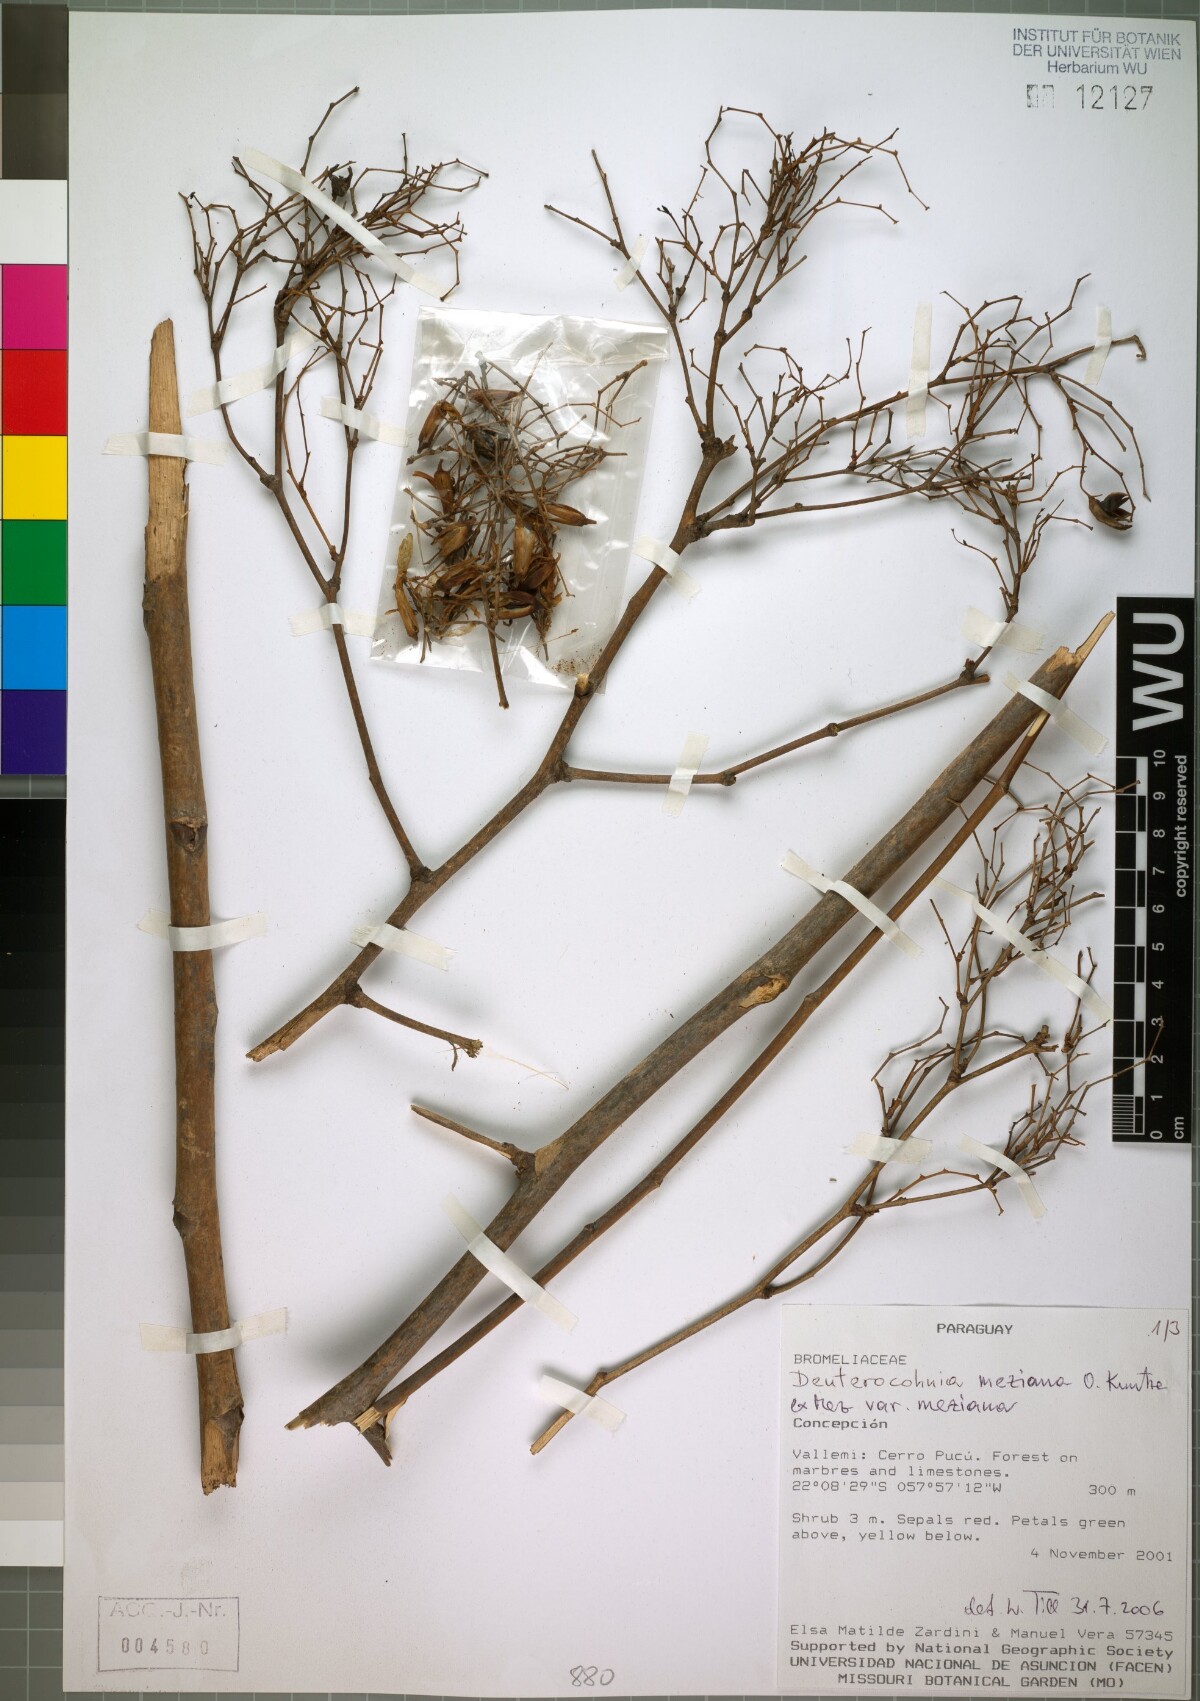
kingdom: Plantae
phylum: Tracheophyta
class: Liliopsida
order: Poales
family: Bromeliaceae
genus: Deuterocohnia
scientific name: Deuterocohnia meziana
